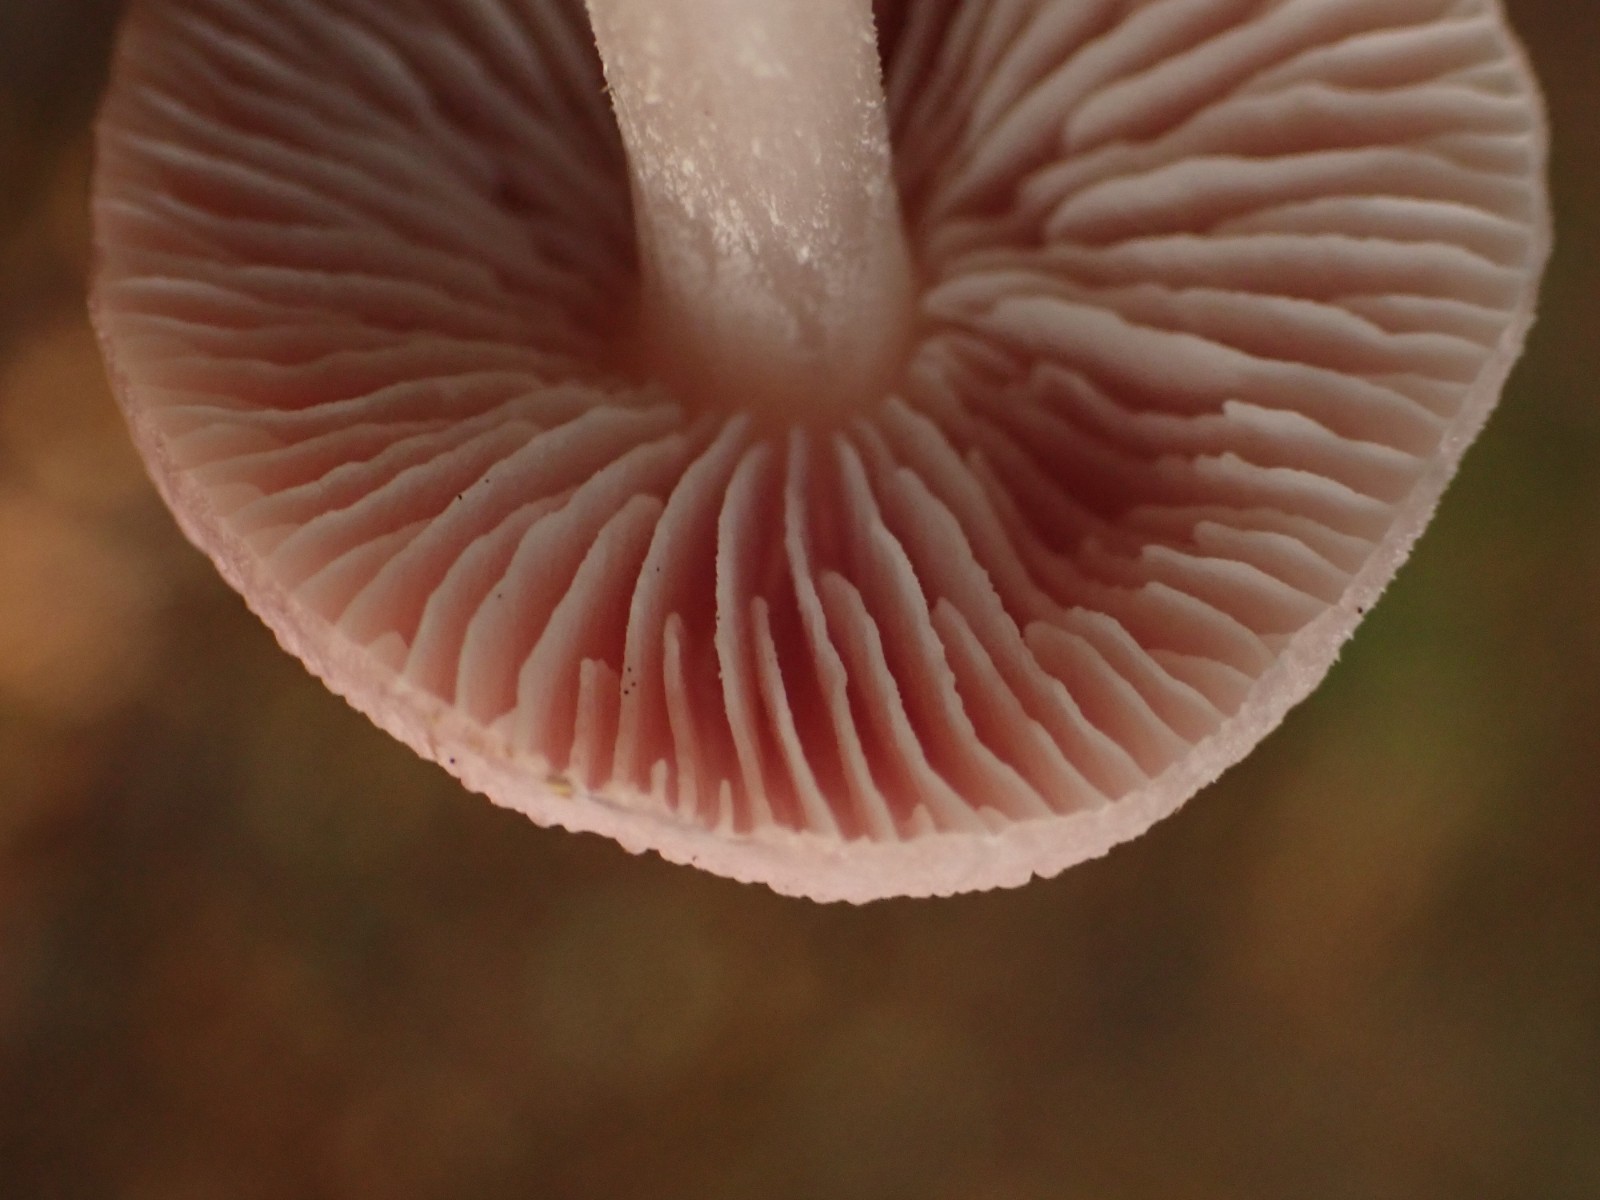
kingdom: Fungi
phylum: Basidiomycota
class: Agaricomycetes
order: Agaricales
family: Mycenaceae
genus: Mycena
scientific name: Mycena rosea
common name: rosa huesvamp
